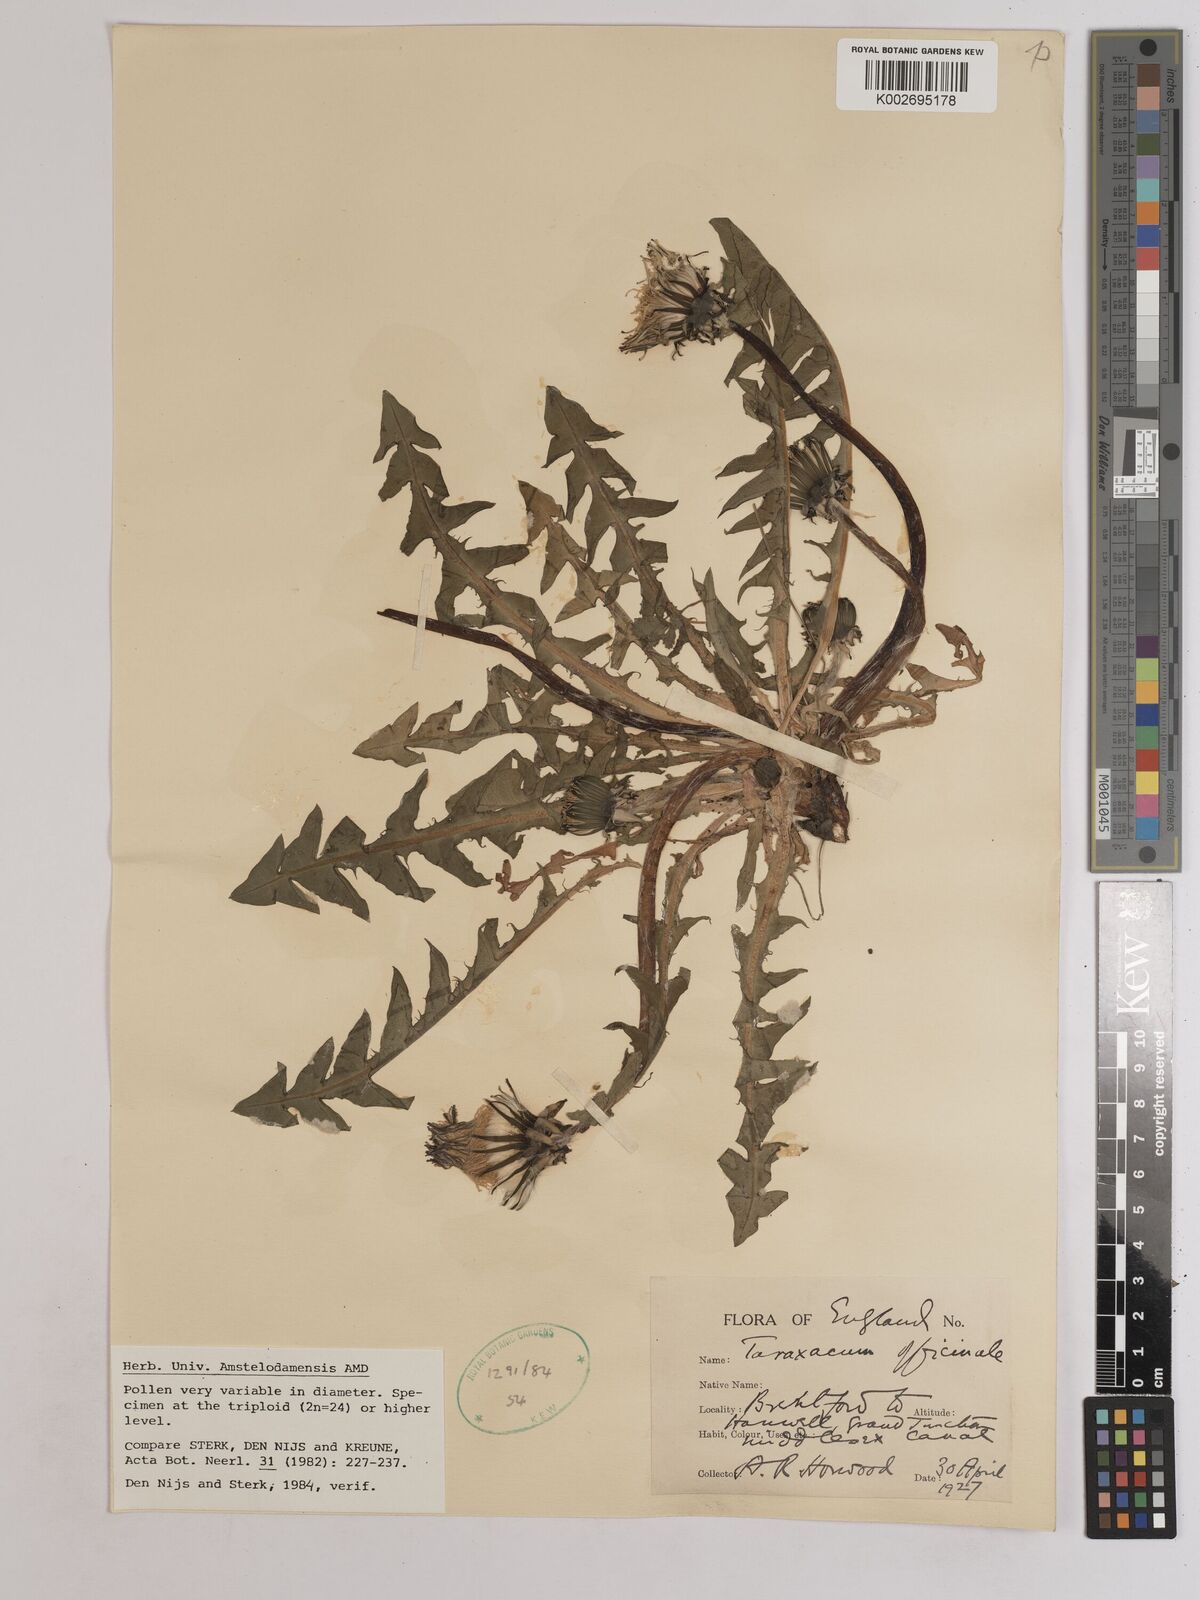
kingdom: Plantae
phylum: Tracheophyta
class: Magnoliopsida
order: Asterales
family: Asteraceae
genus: Taraxacum
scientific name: Taraxacum officinale
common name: Common dandelion
